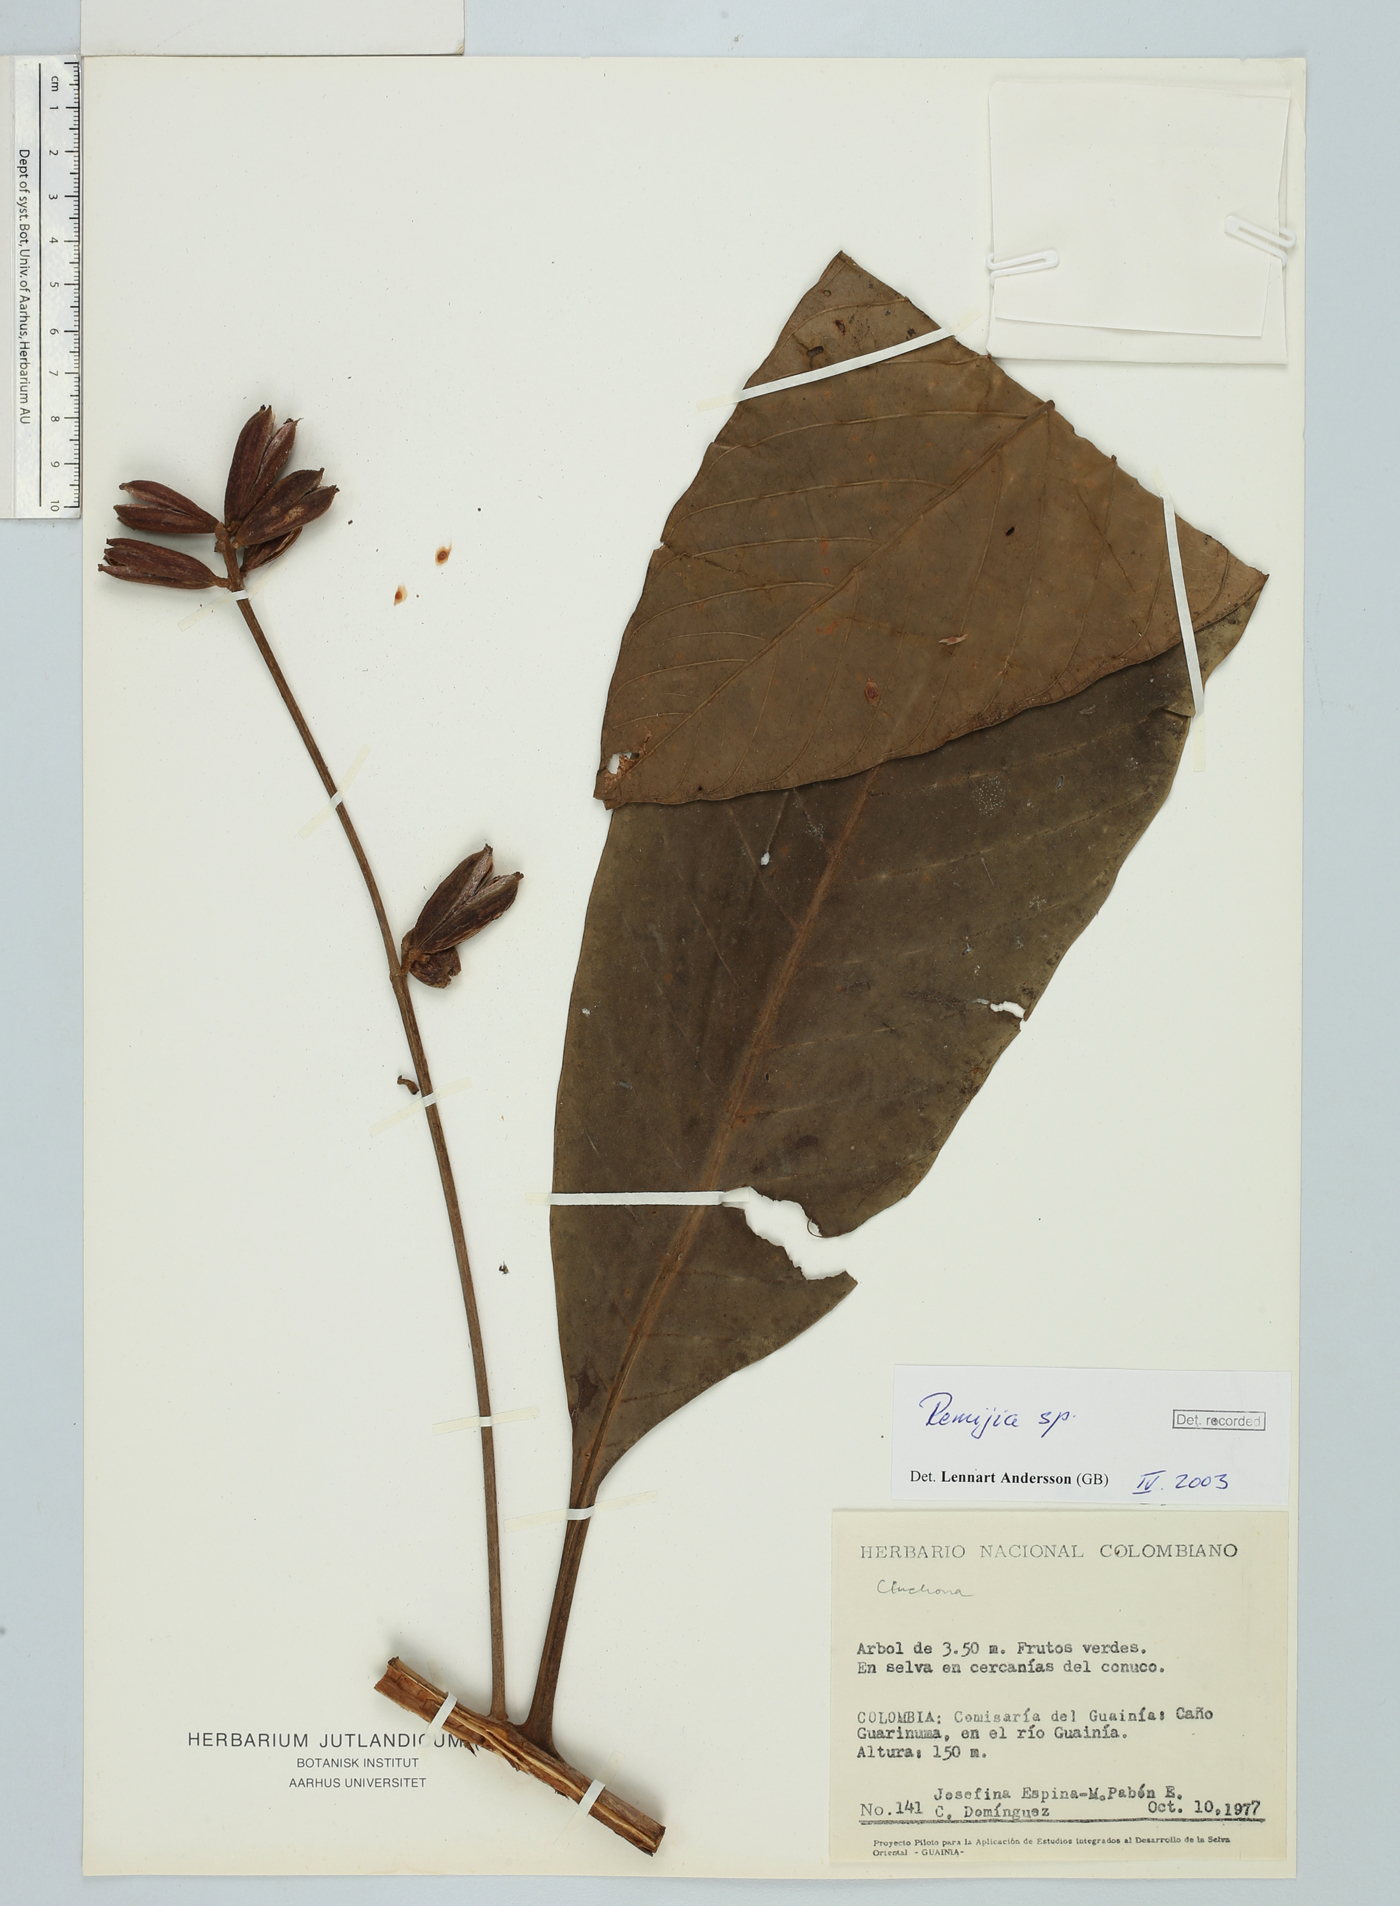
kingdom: Plantae
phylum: Tracheophyta
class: Magnoliopsida
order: Gentianales
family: Rubiaceae
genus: Remijia
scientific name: Remijia
